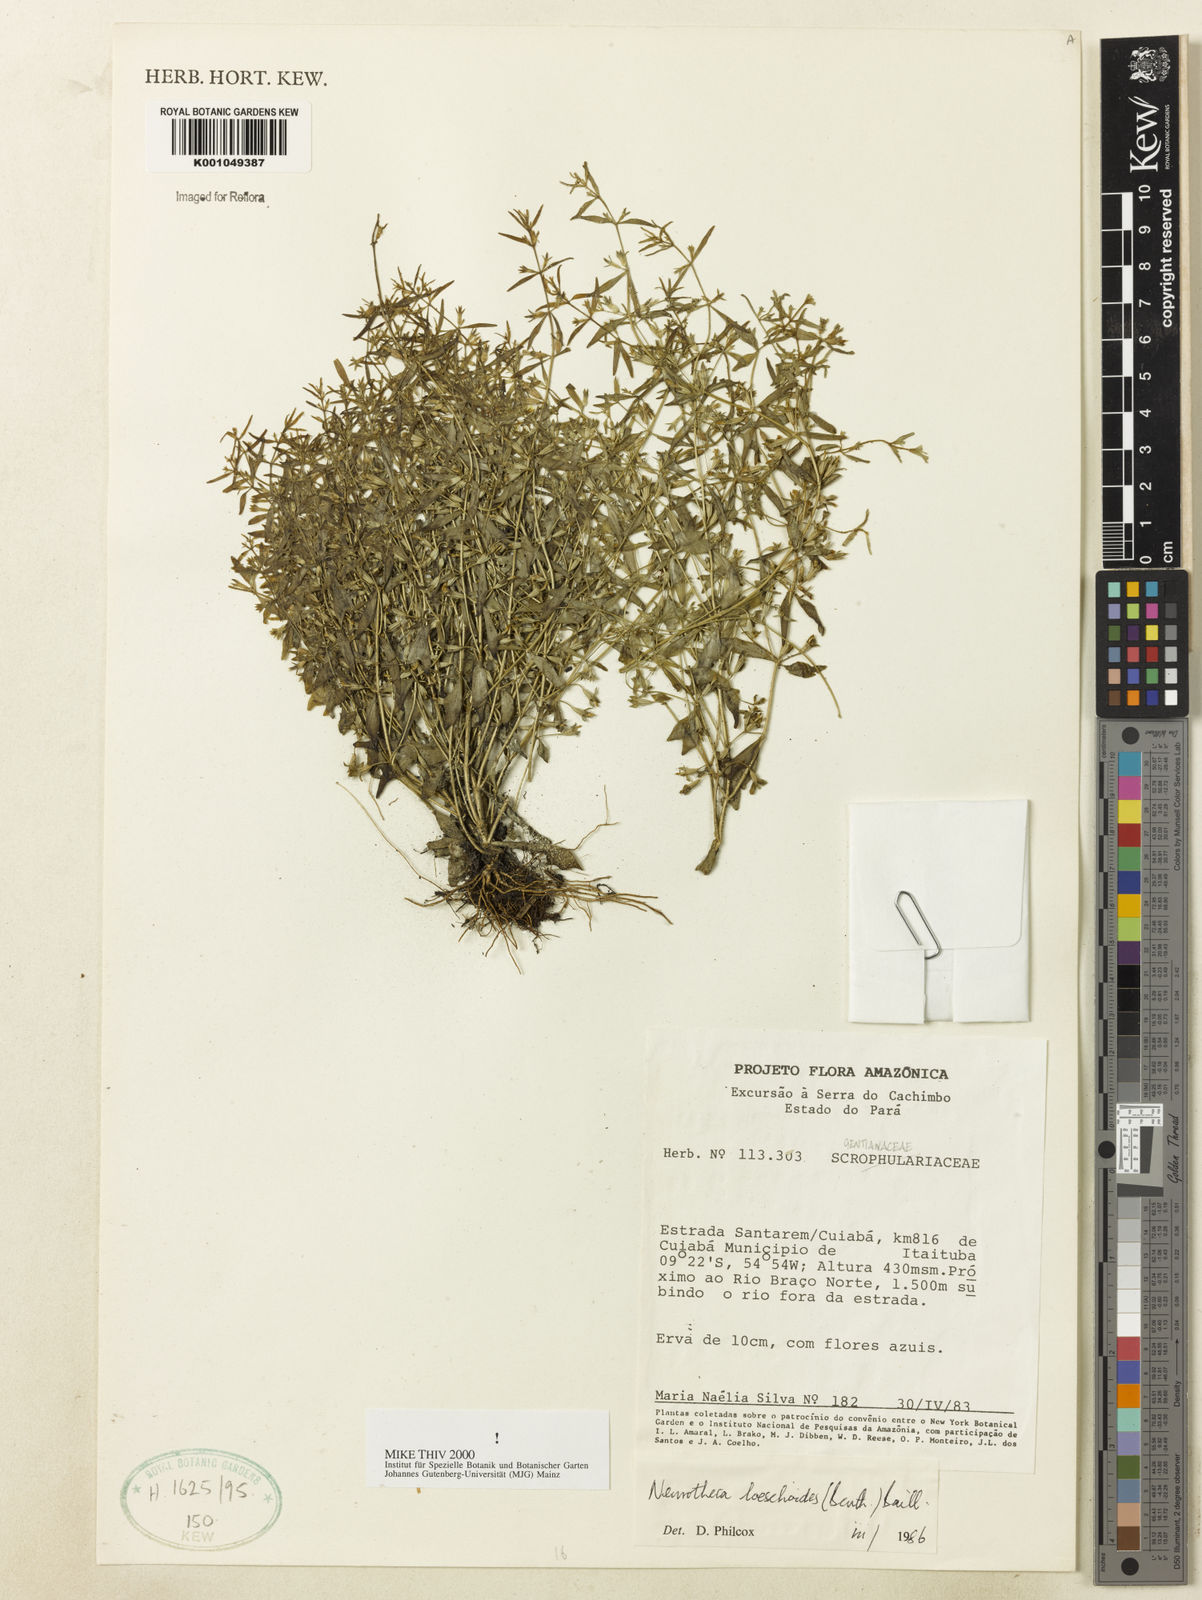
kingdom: Plantae
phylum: Tracheophyta
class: Magnoliopsida
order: Gentianales
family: Gentianaceae
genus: Neurotheca
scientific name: Neurotheca loeselioides
